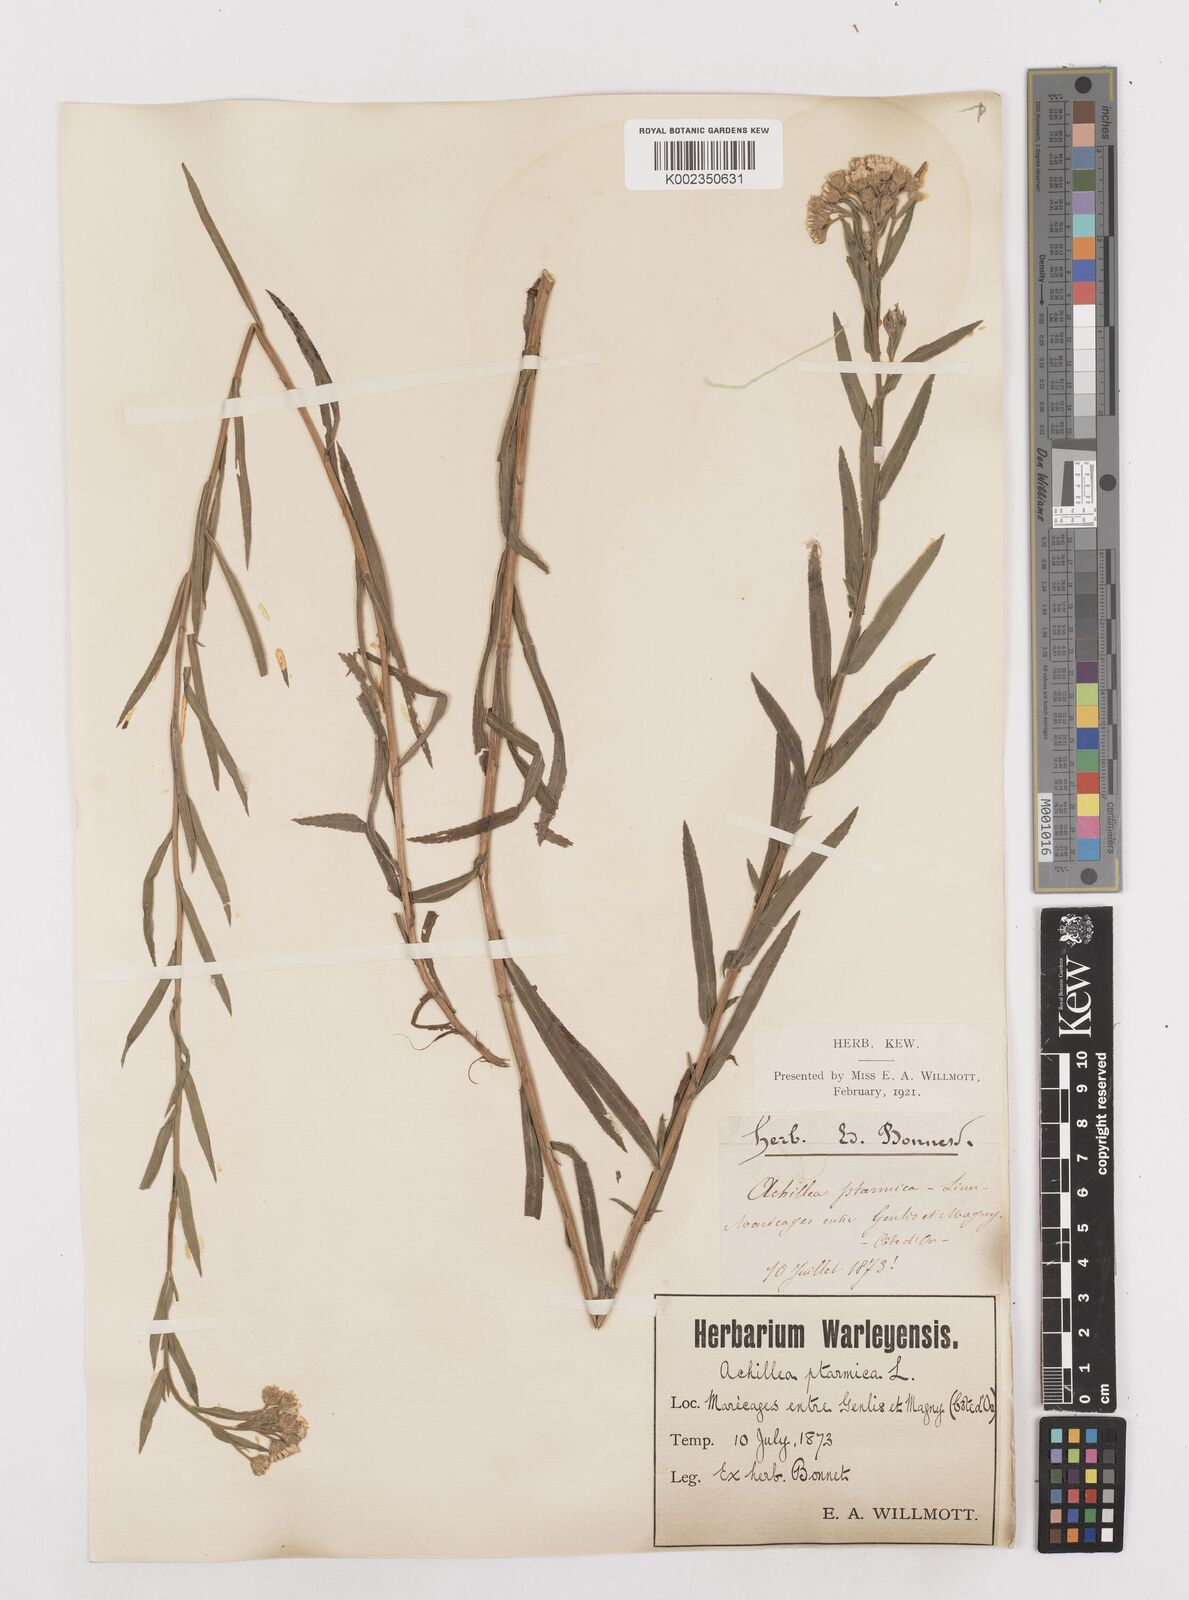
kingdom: Plantae
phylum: Tracheophyta
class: Magnoliopsida
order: Asterales
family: Asteraceae
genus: Achillea
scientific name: Achillea ptarmica
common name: Sneezeweed
